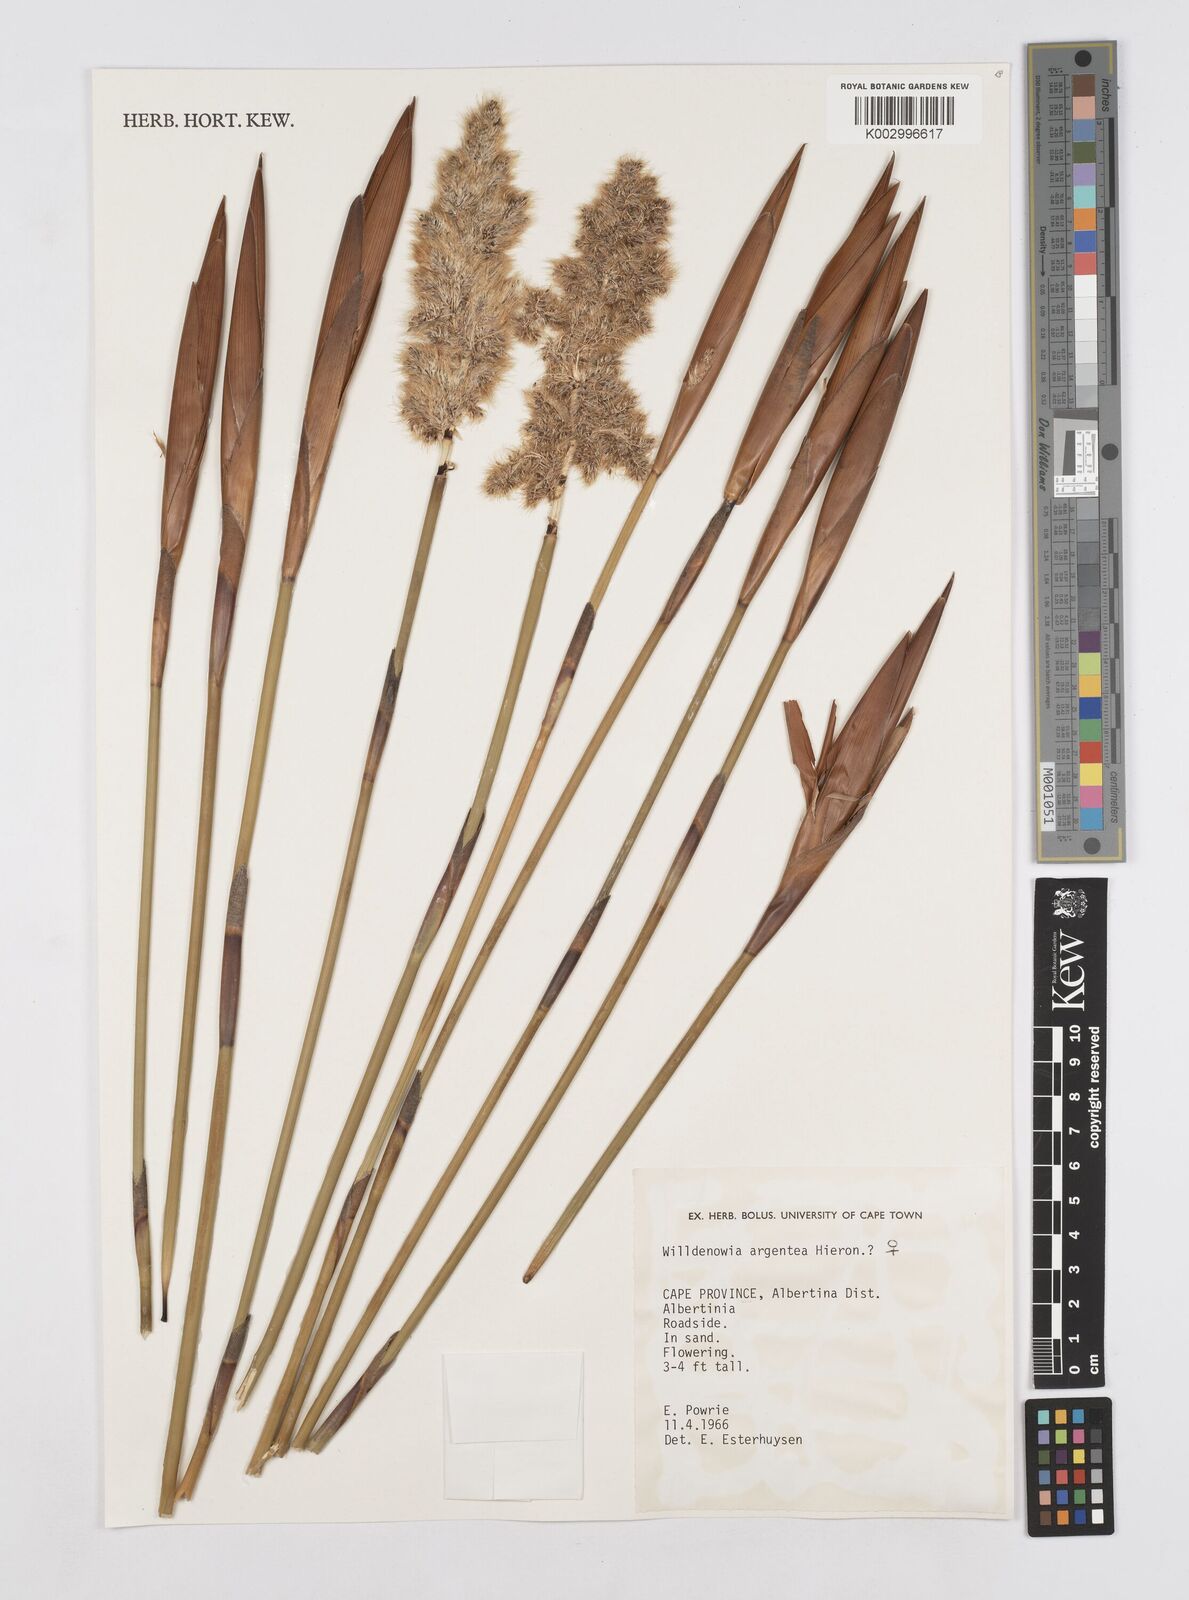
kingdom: Plantae
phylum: Tracheophyta
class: Liliopsida
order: Poales
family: Restionaceae
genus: Ceratocaryum
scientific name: Ceratocaryum argenteum
